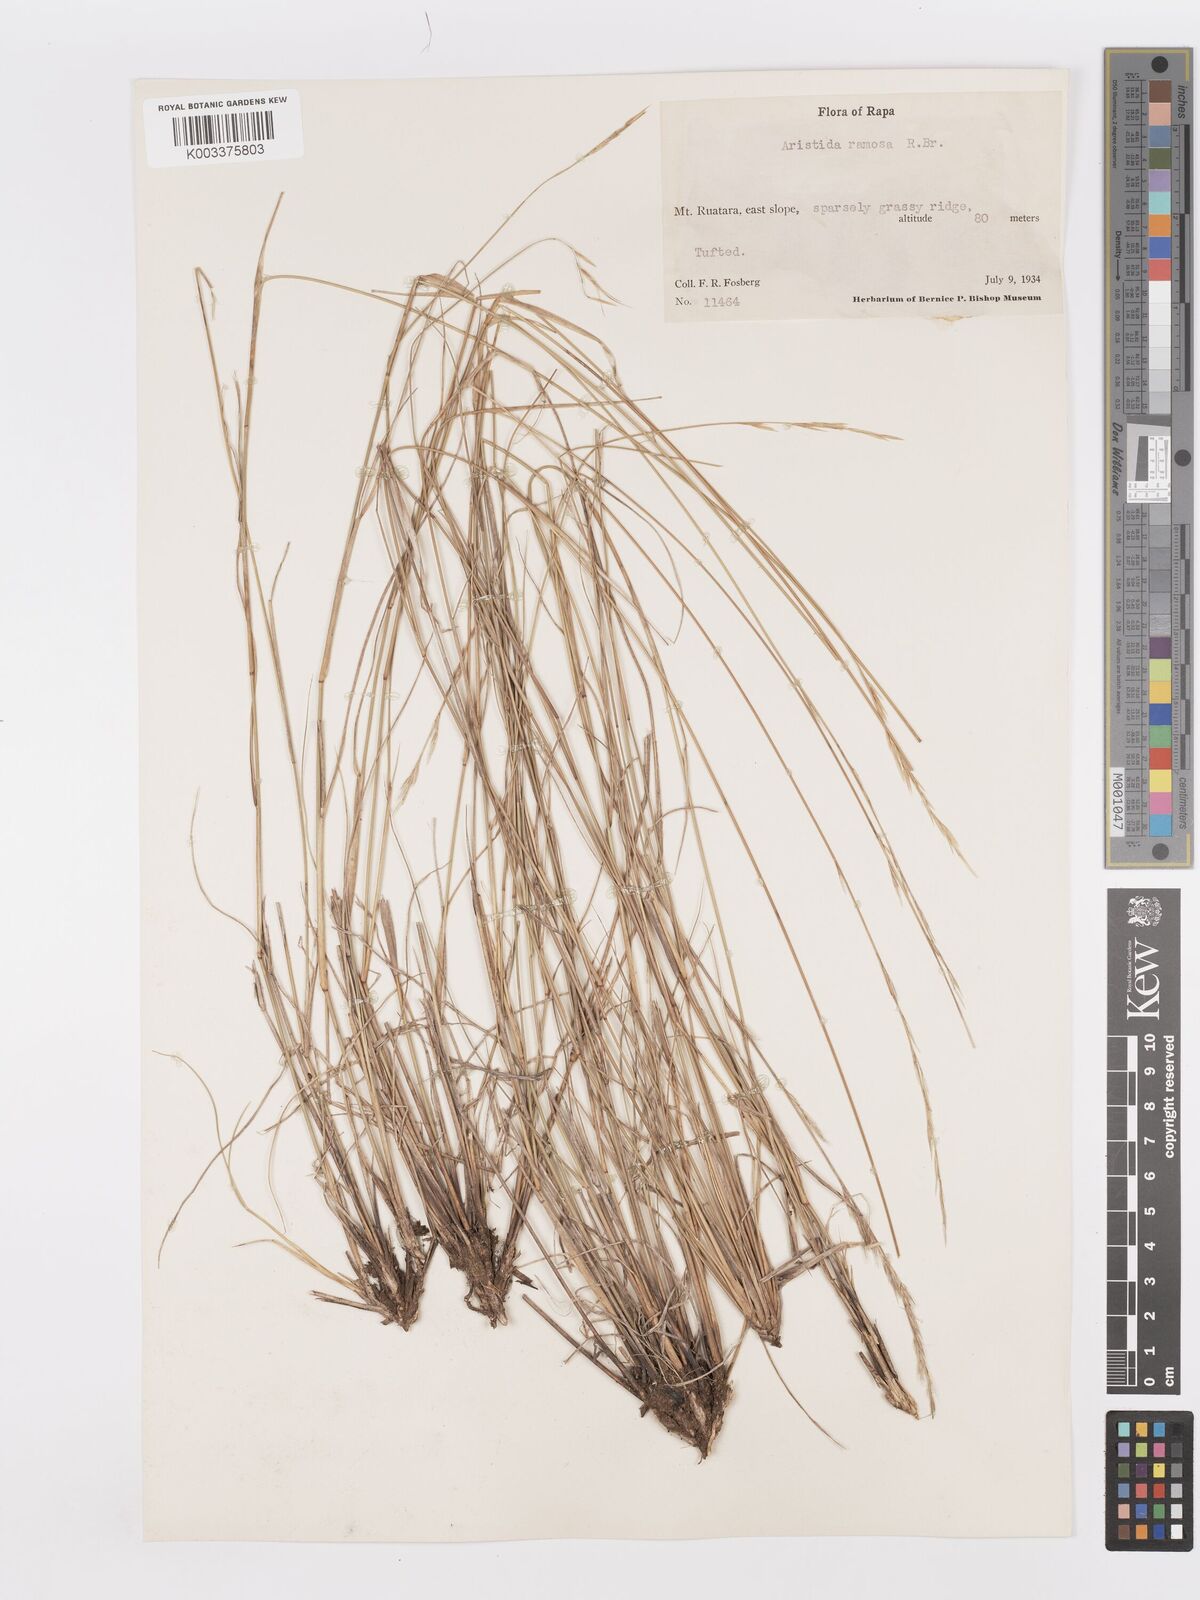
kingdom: Plantae
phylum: Tracheophyta
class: Liliopsida
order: Poales
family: Poaceae
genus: Aristida
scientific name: Aristida ramosa
